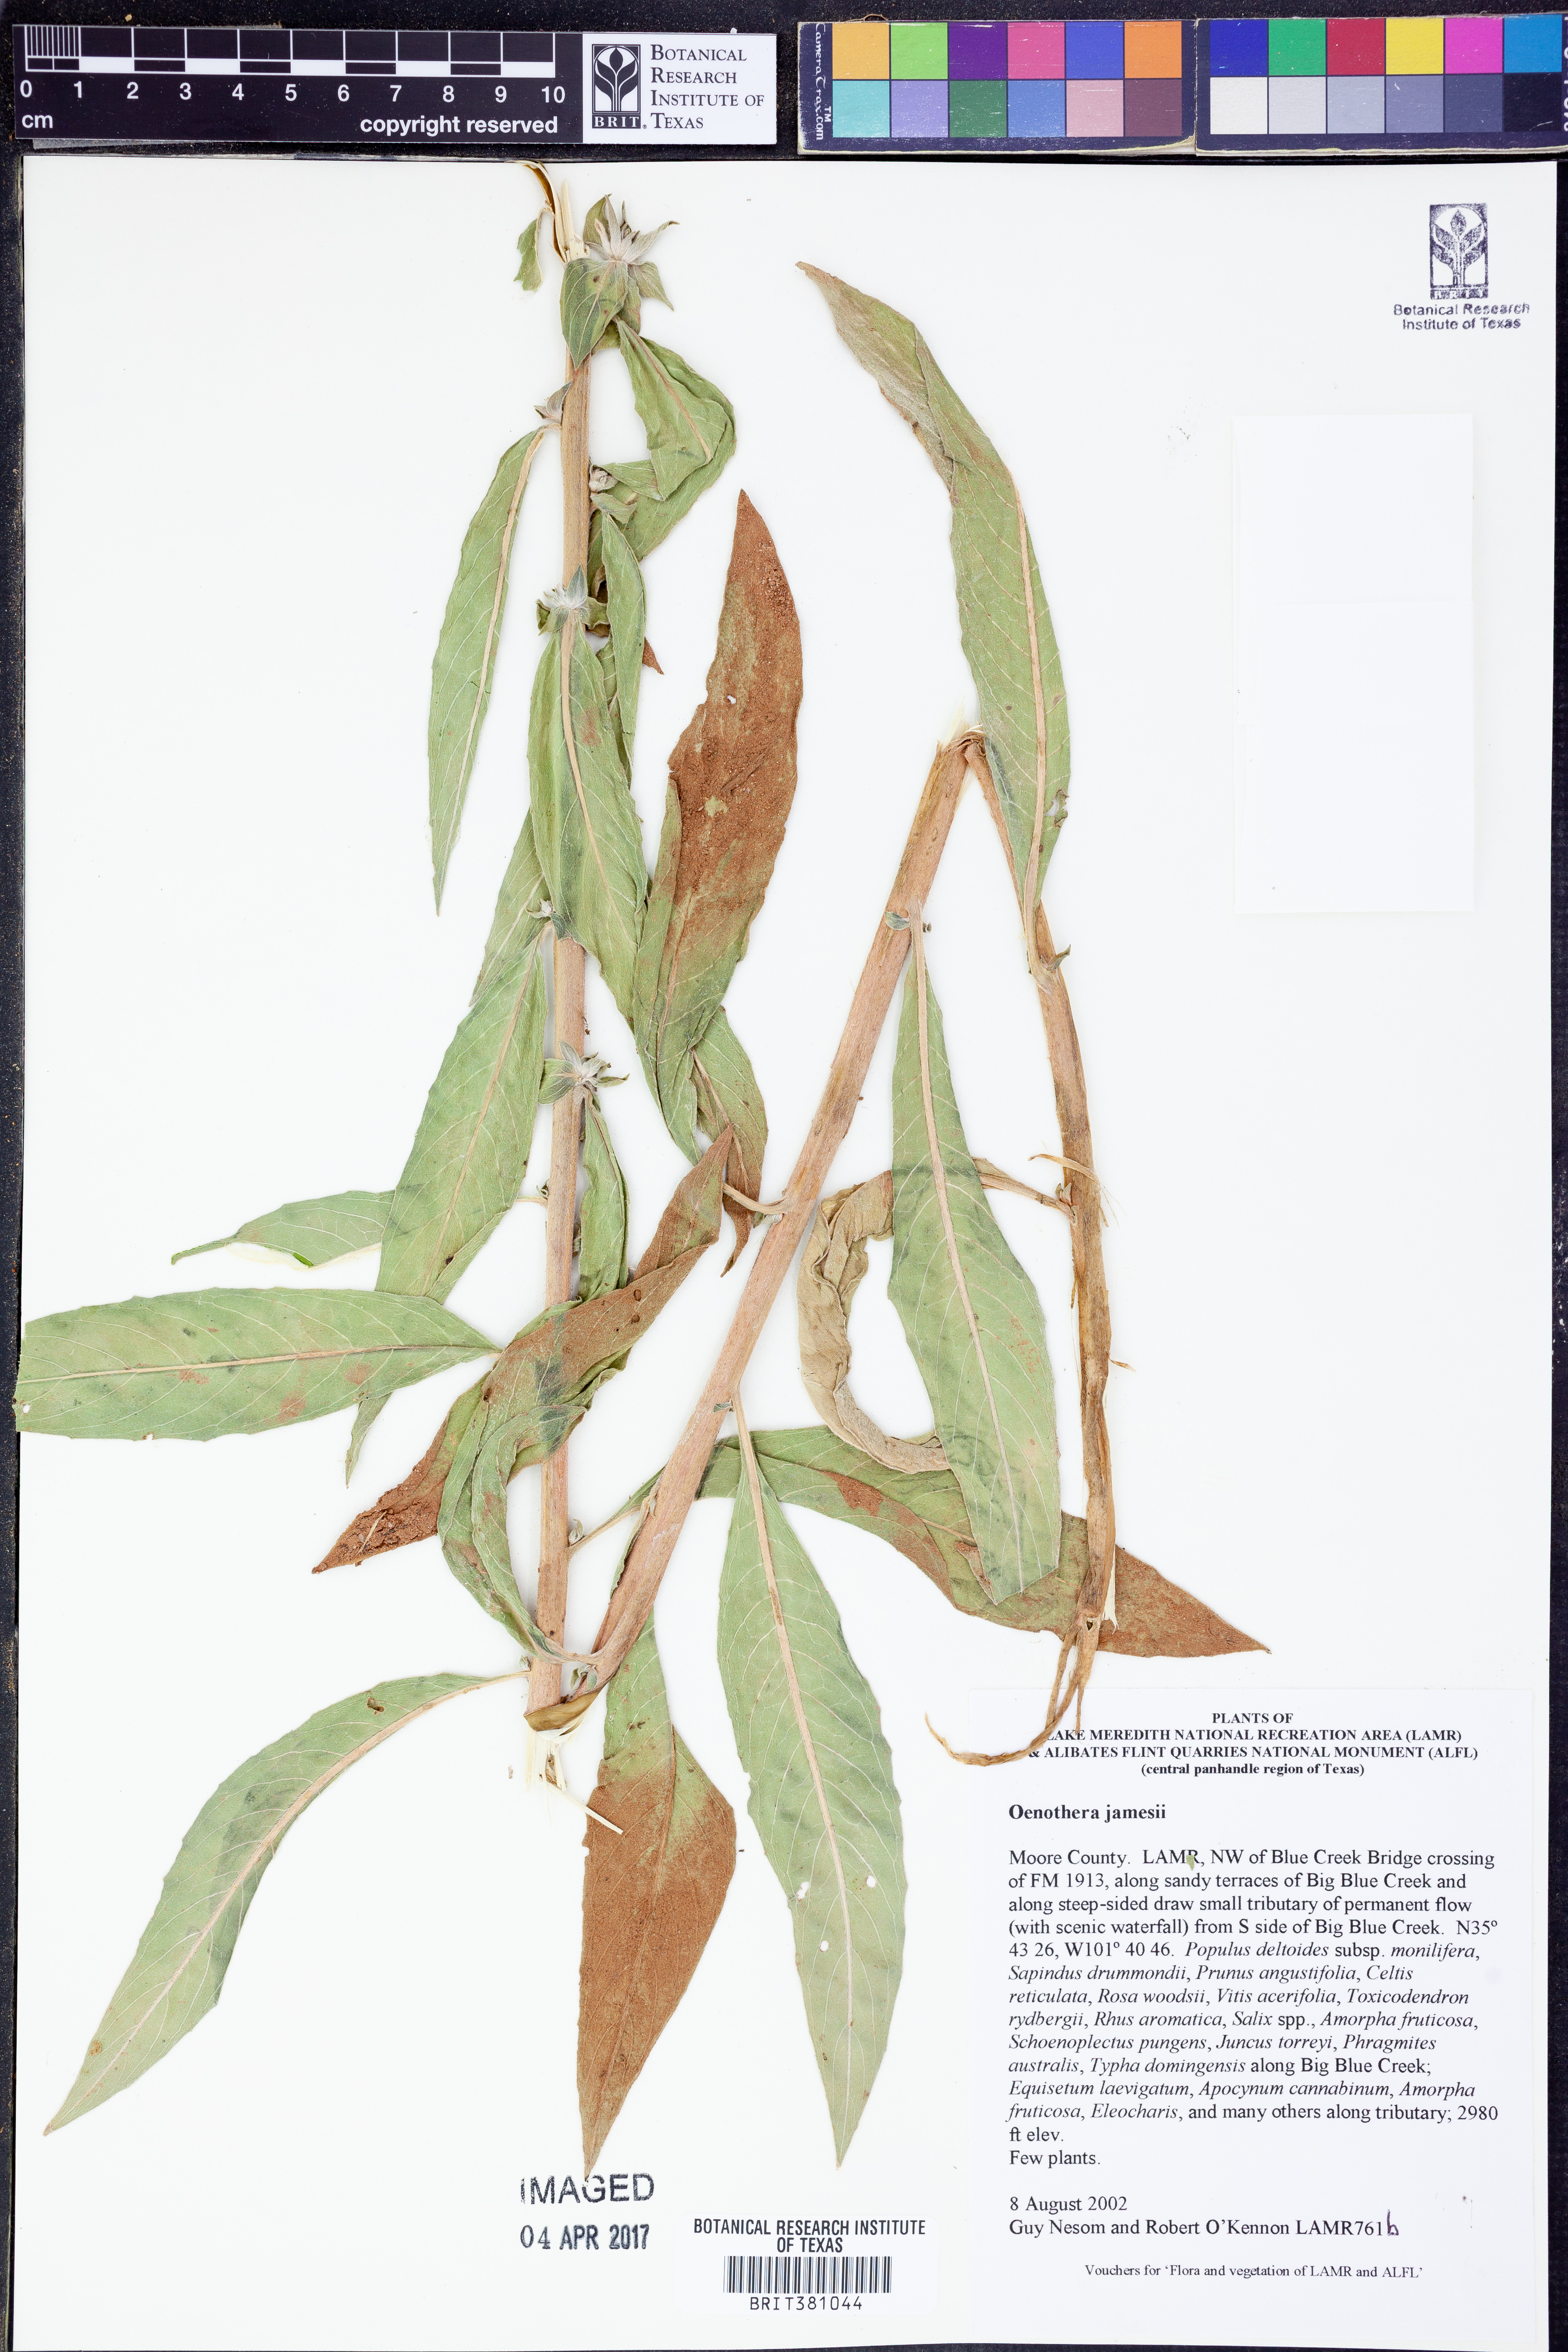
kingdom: Plantae
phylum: Tracheophyta
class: Magnoliopsida
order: Myrtales
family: Onagraceae
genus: Oenothera
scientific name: Oenothera jamesii
